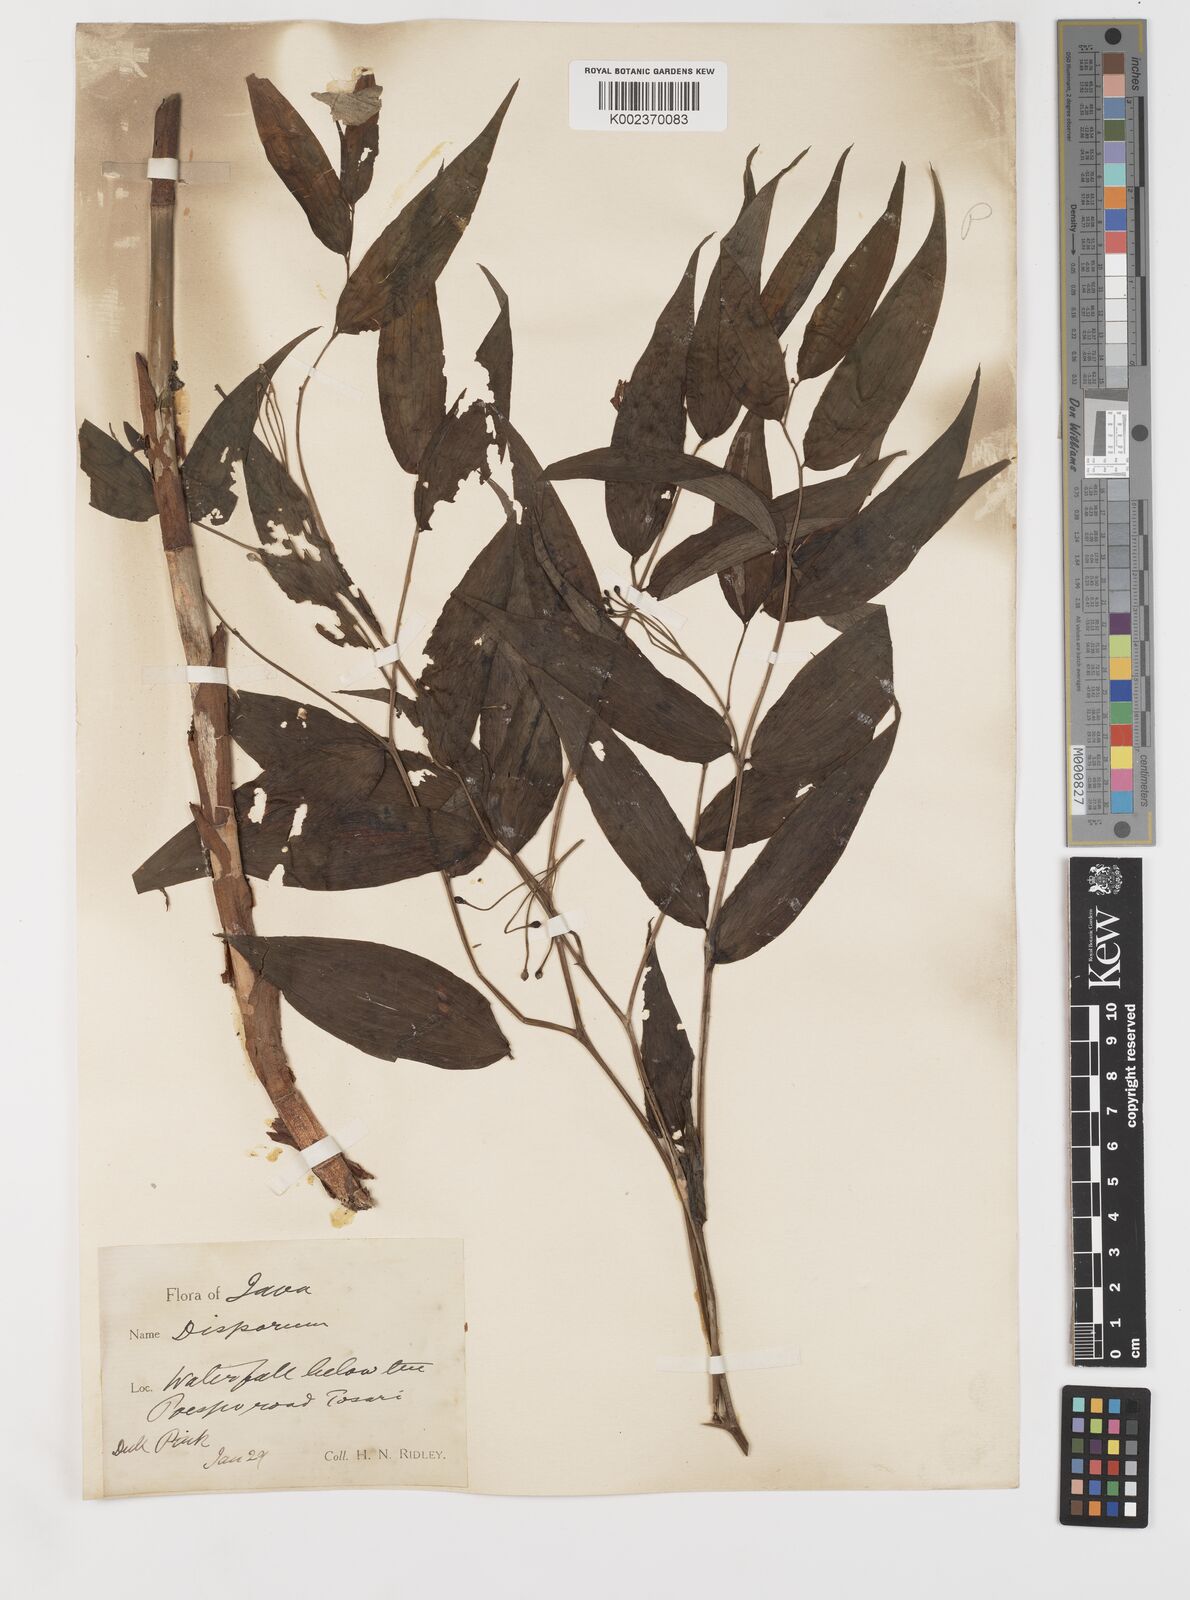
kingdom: Plantae
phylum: Tracheophyta
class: Liliopsida
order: Liliales
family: Colchicaceae
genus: Disporum
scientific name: Disporum cantoniense
